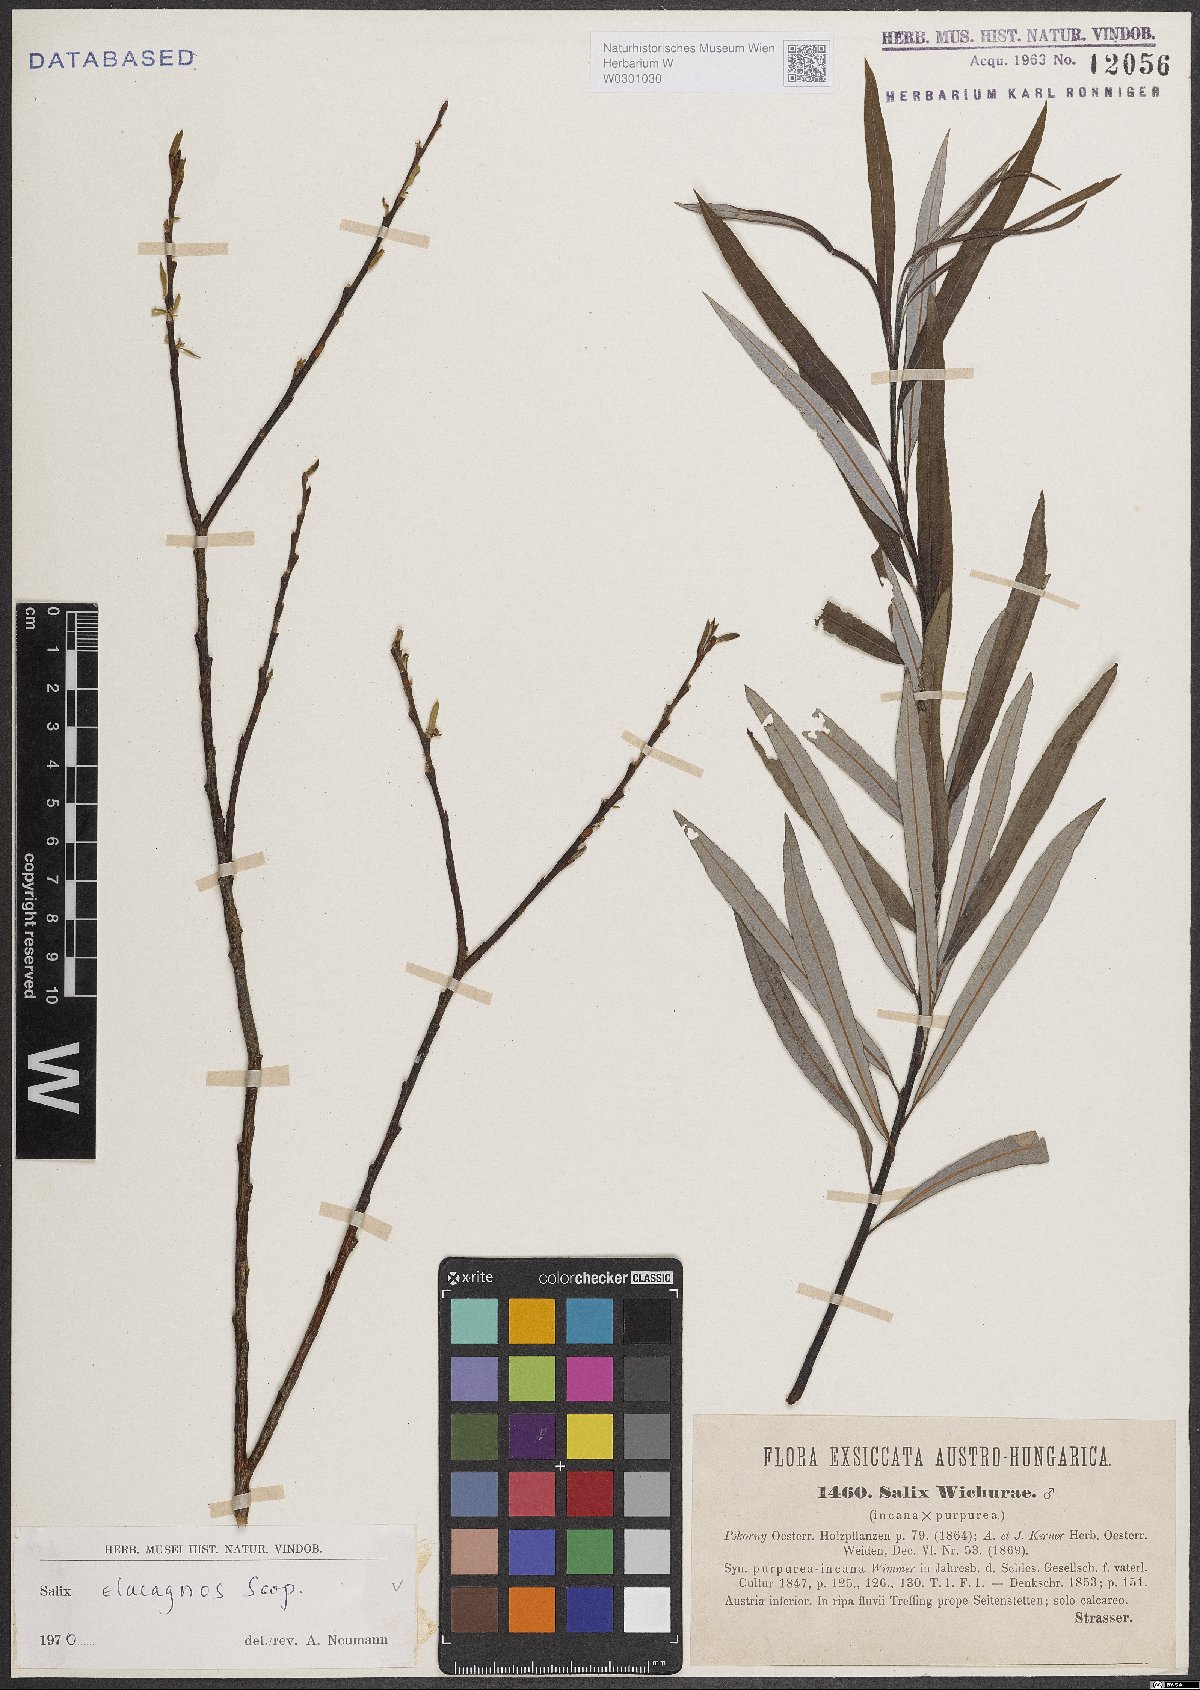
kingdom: Plantae
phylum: Tracheophyta
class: Magnoliopsida
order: Malpighiales
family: Salicaceae
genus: Salix
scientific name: Salix eleagnos
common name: Elaeagnus willow
